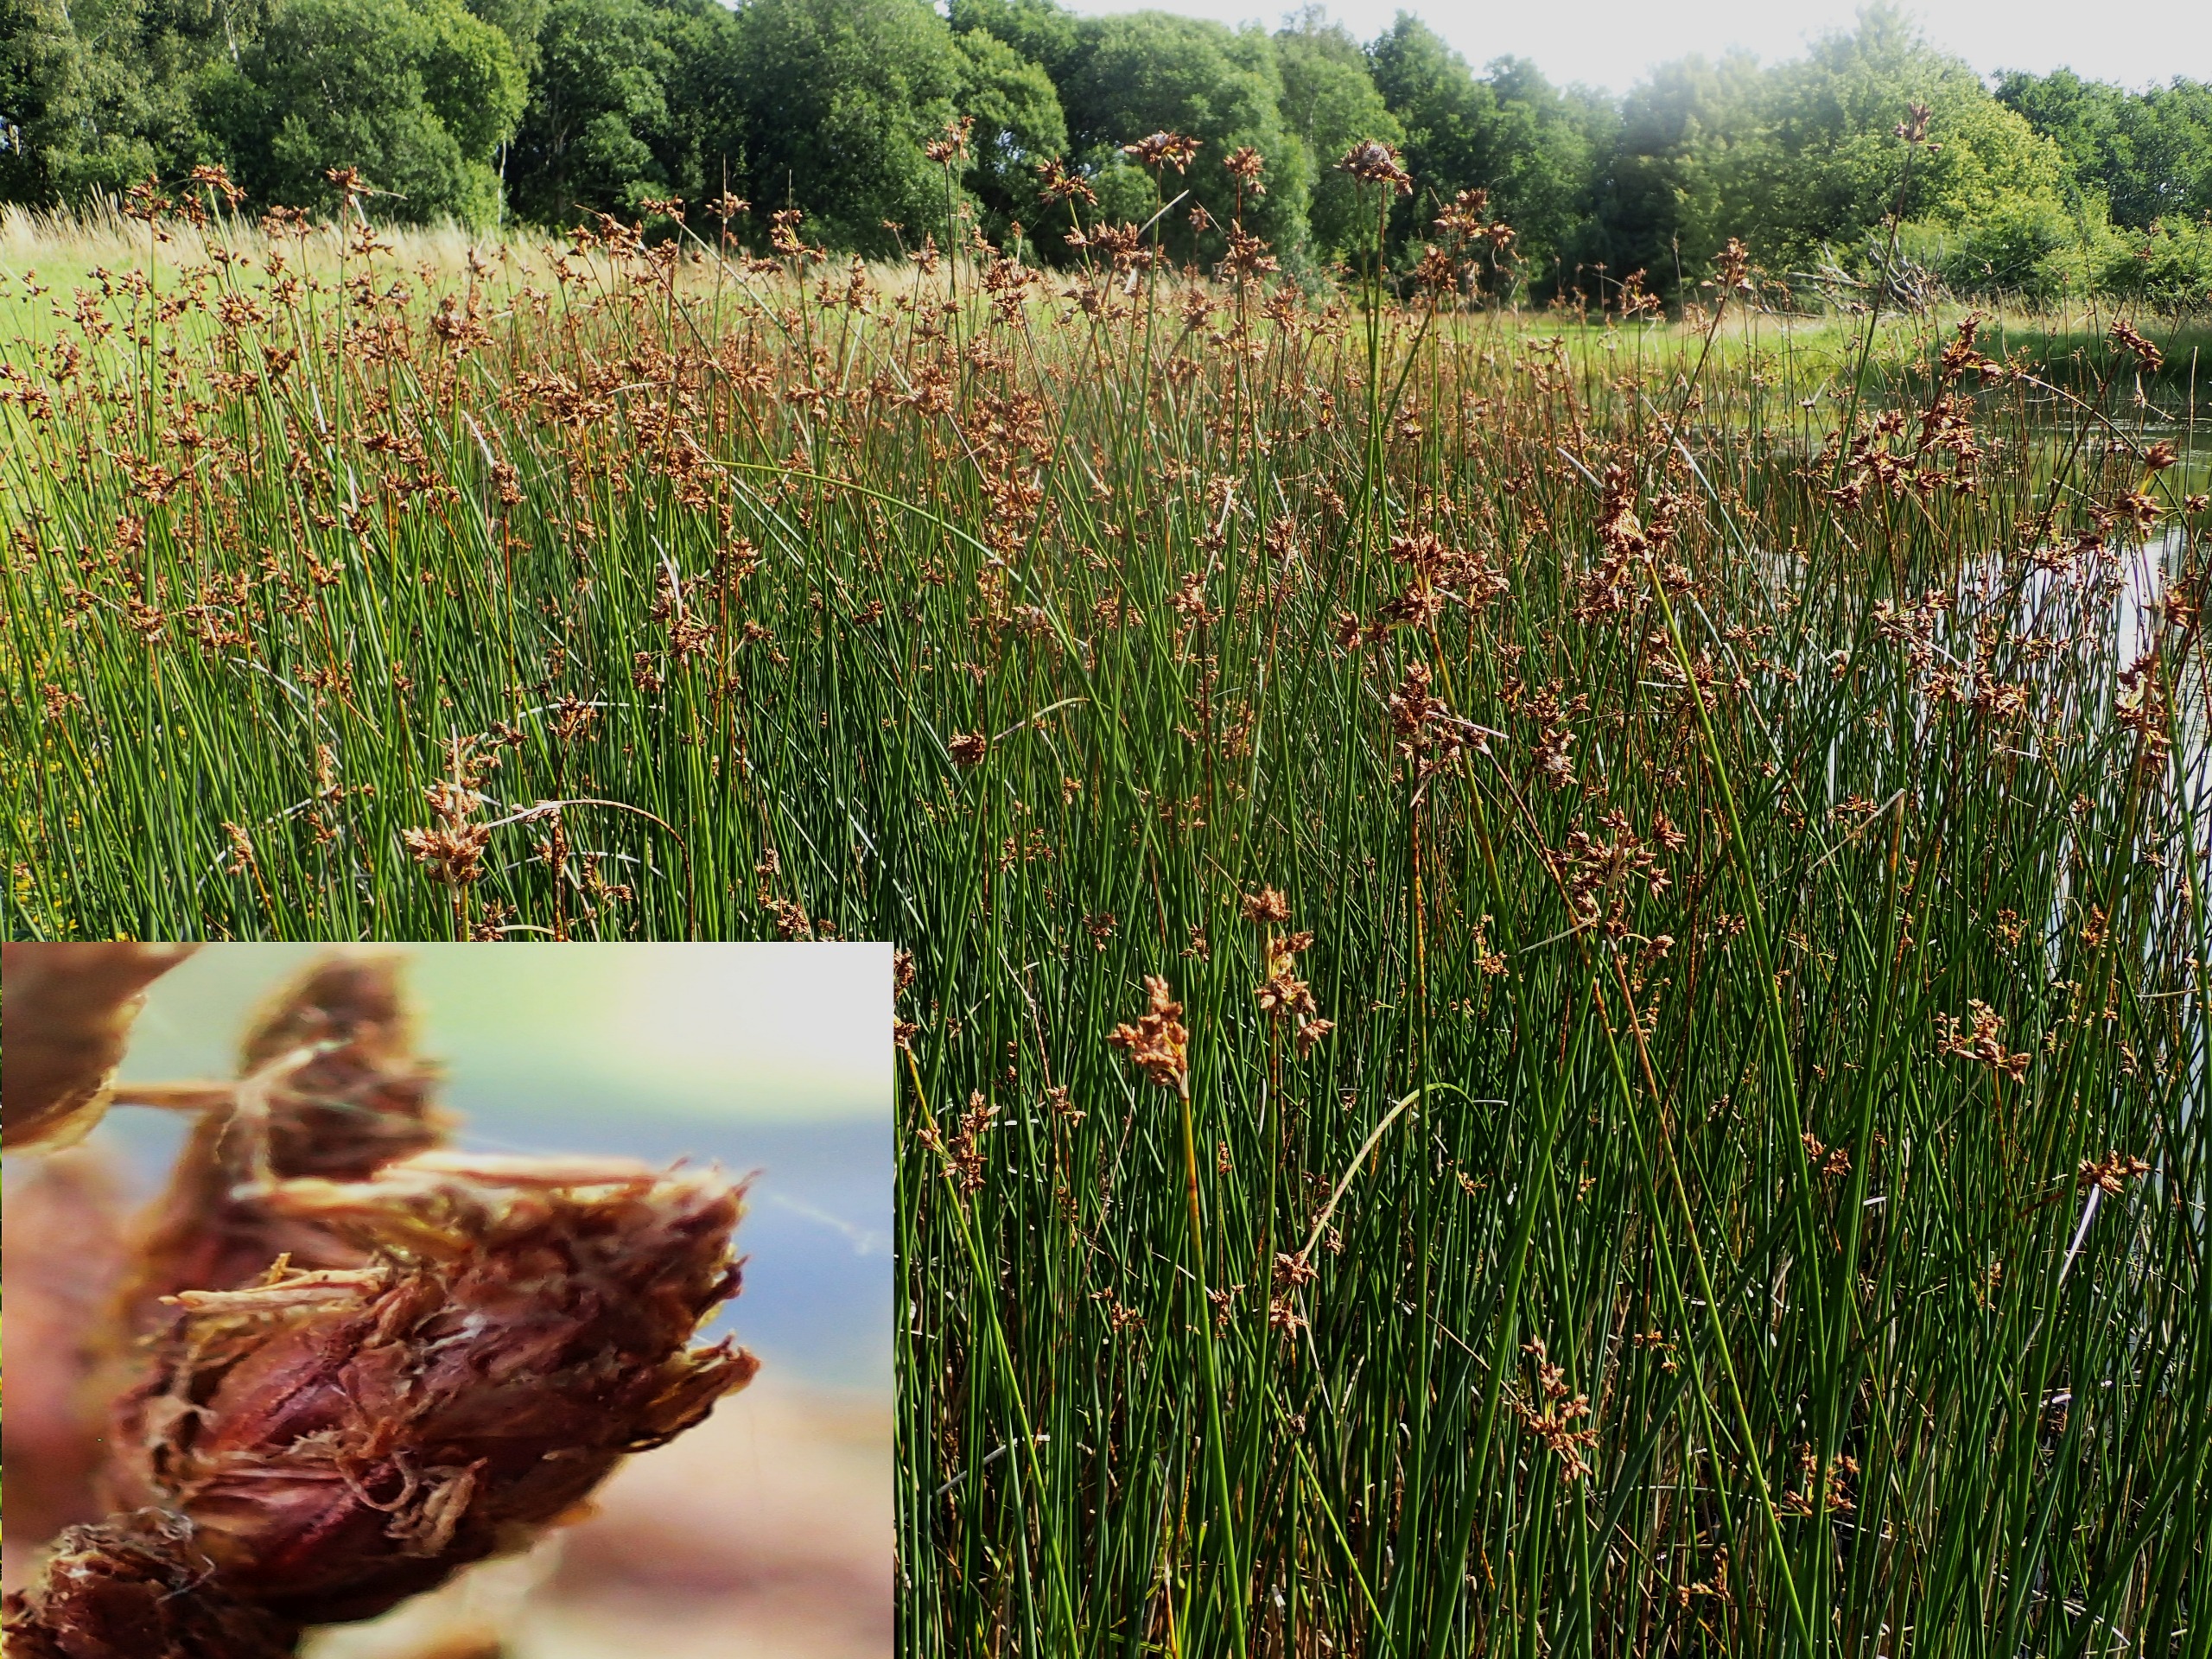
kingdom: Plantae
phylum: Tracheophyta
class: Liliopsida
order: Poales
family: Cyperaceae
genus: Schoenoplectus
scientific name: Schoenoplectus lacustris
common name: Sø-kogleaks
